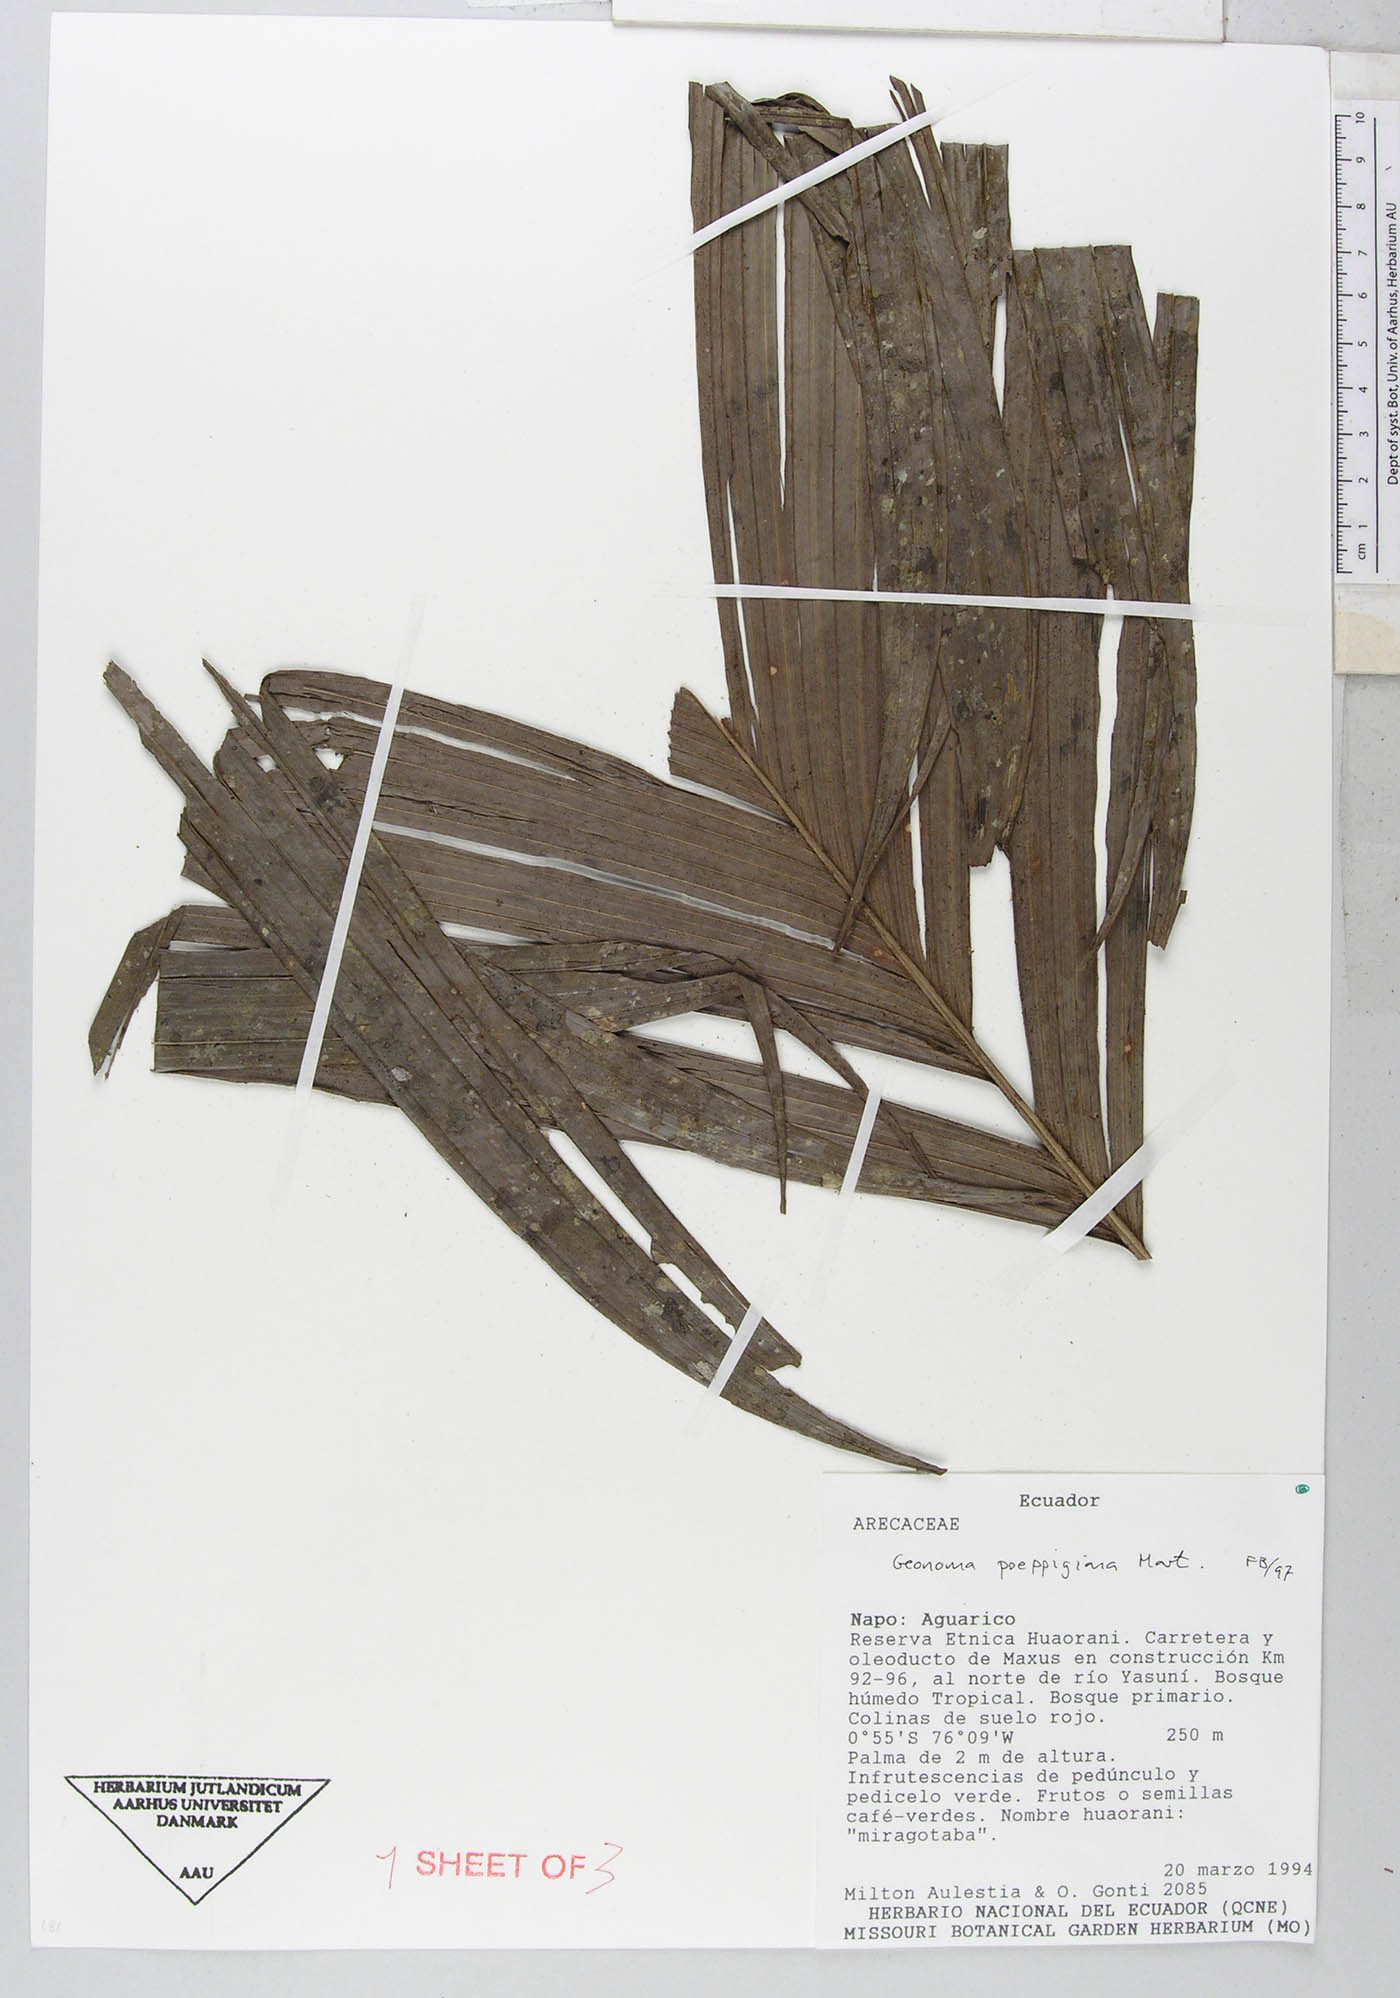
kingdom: Plantae
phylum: Tracheophyta
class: Liliopsida
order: Arecales
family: Arecaceae
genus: Geonoma
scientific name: Geonoma poeppigiana
